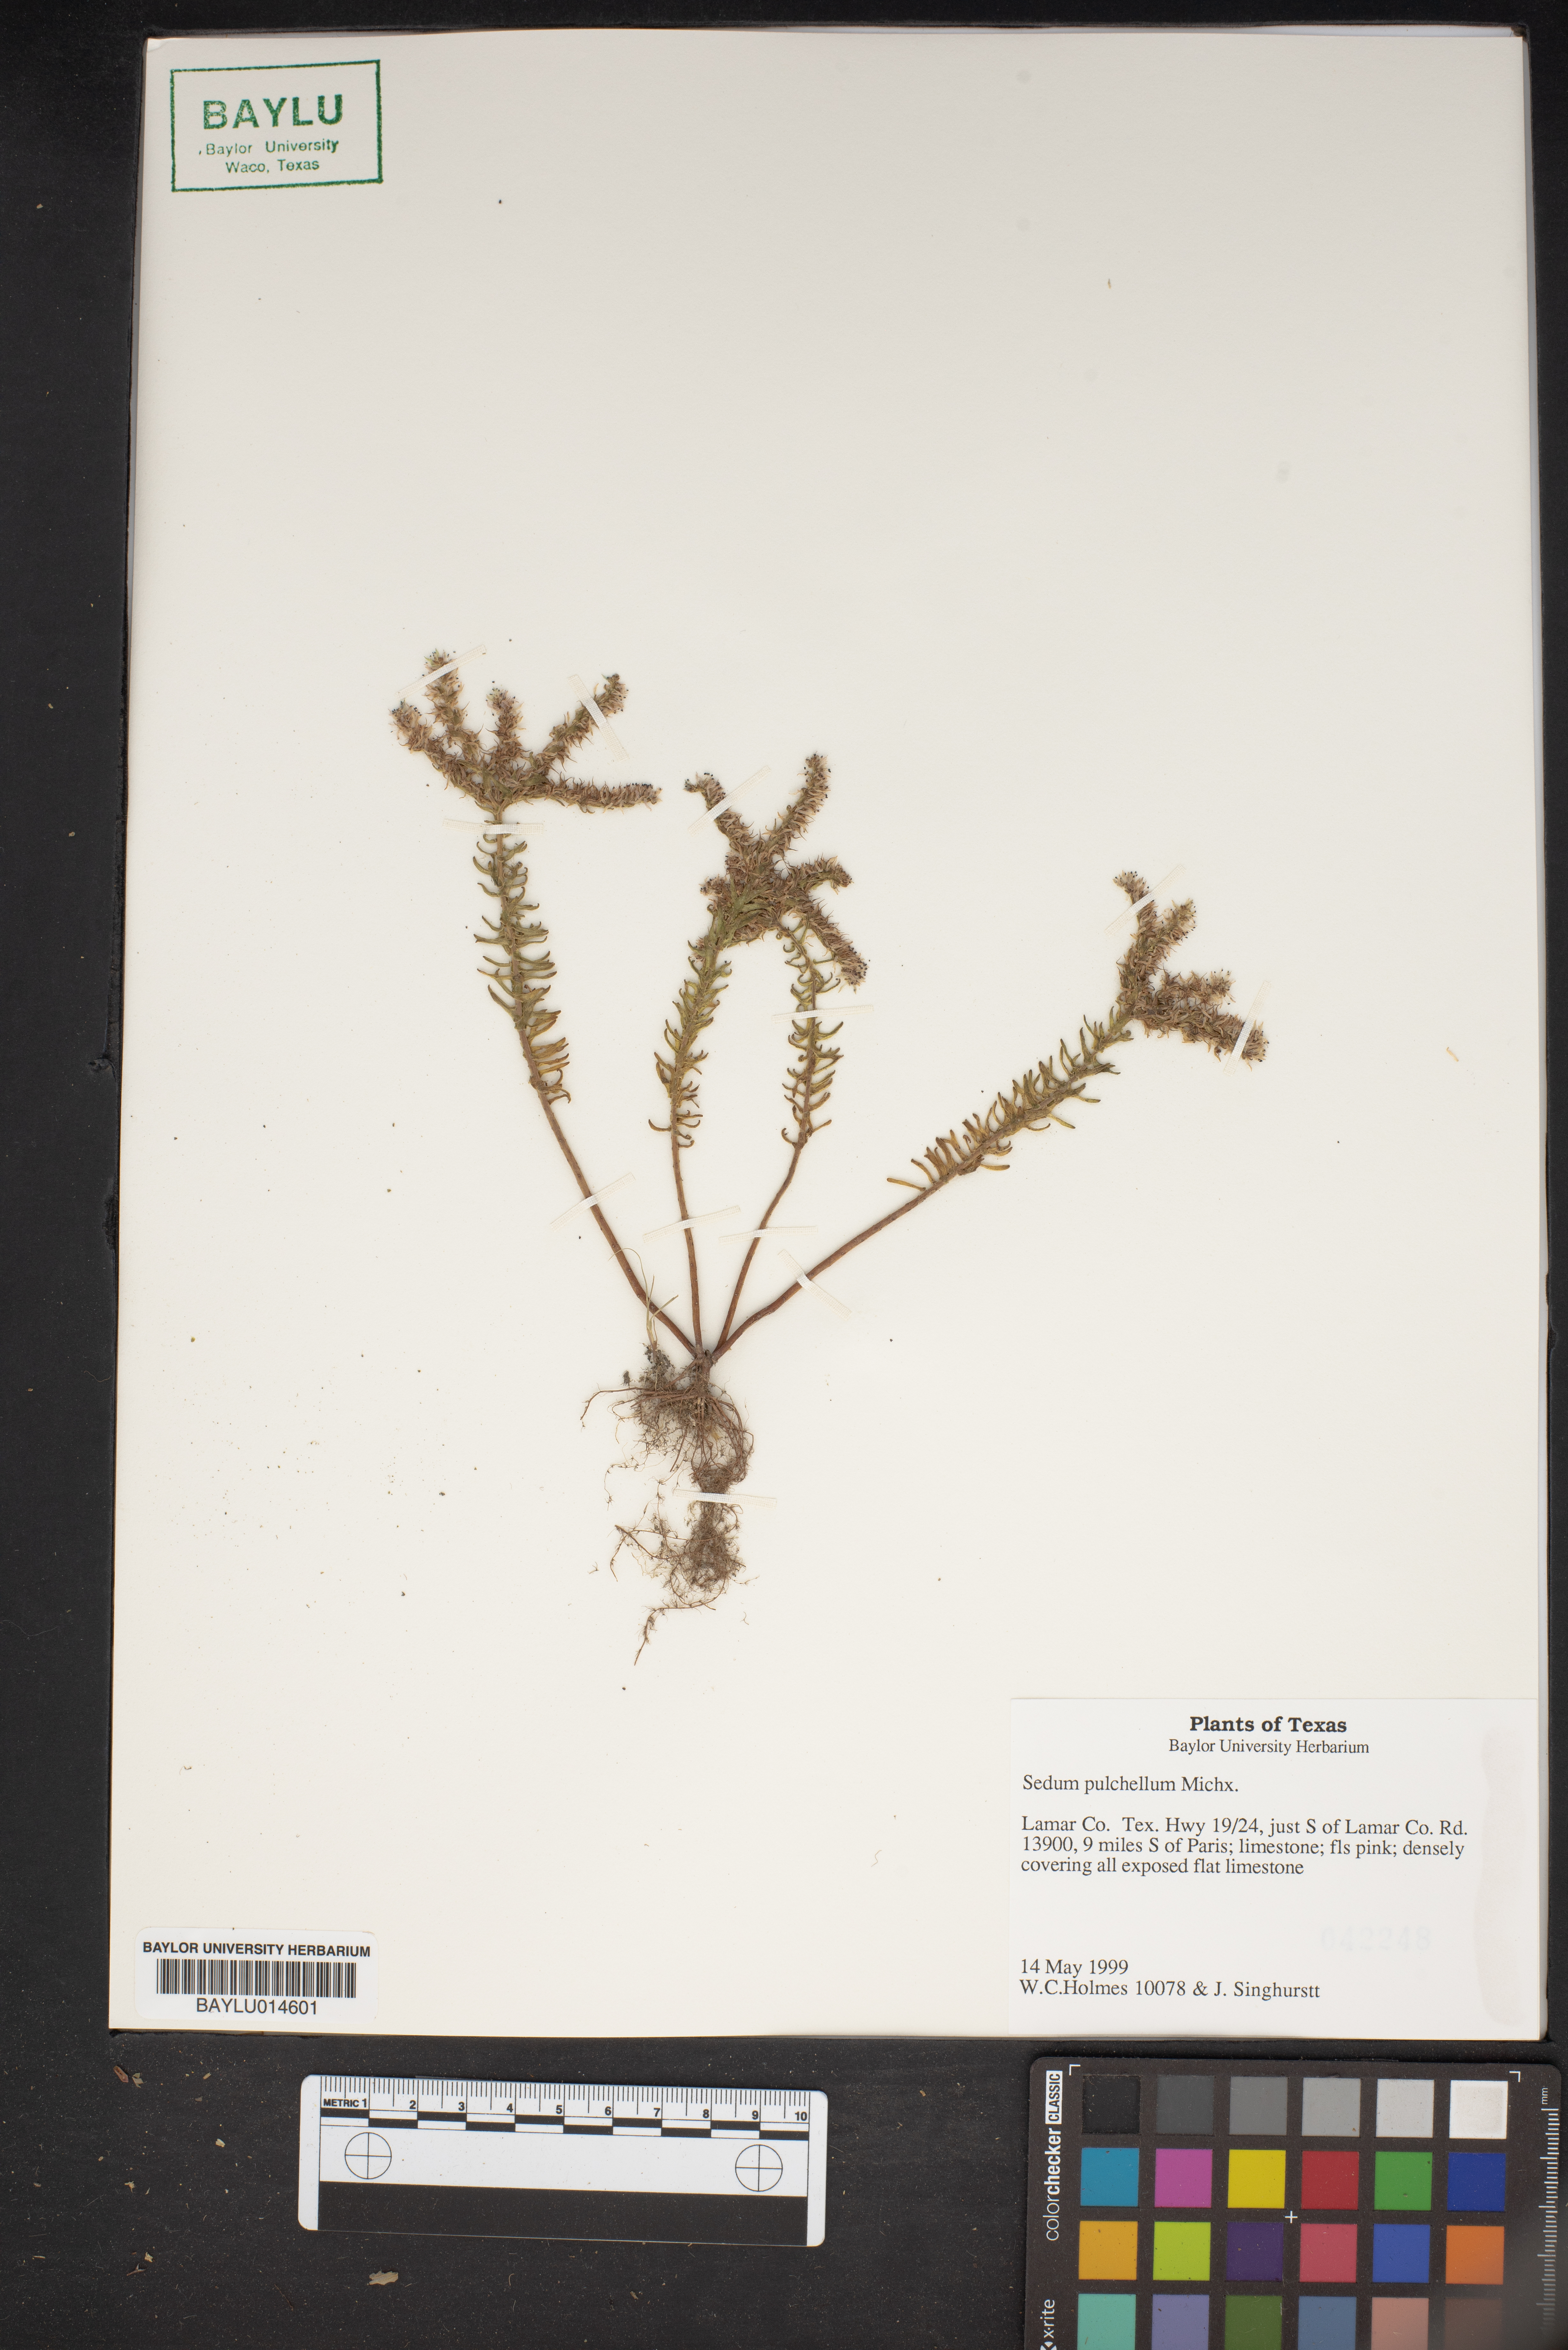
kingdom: Plantae
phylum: Tracheophyta
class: Magnoliopsida
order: Saxifragales
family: Crassulaceae
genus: Sedum
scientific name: Sedum pulchellum
